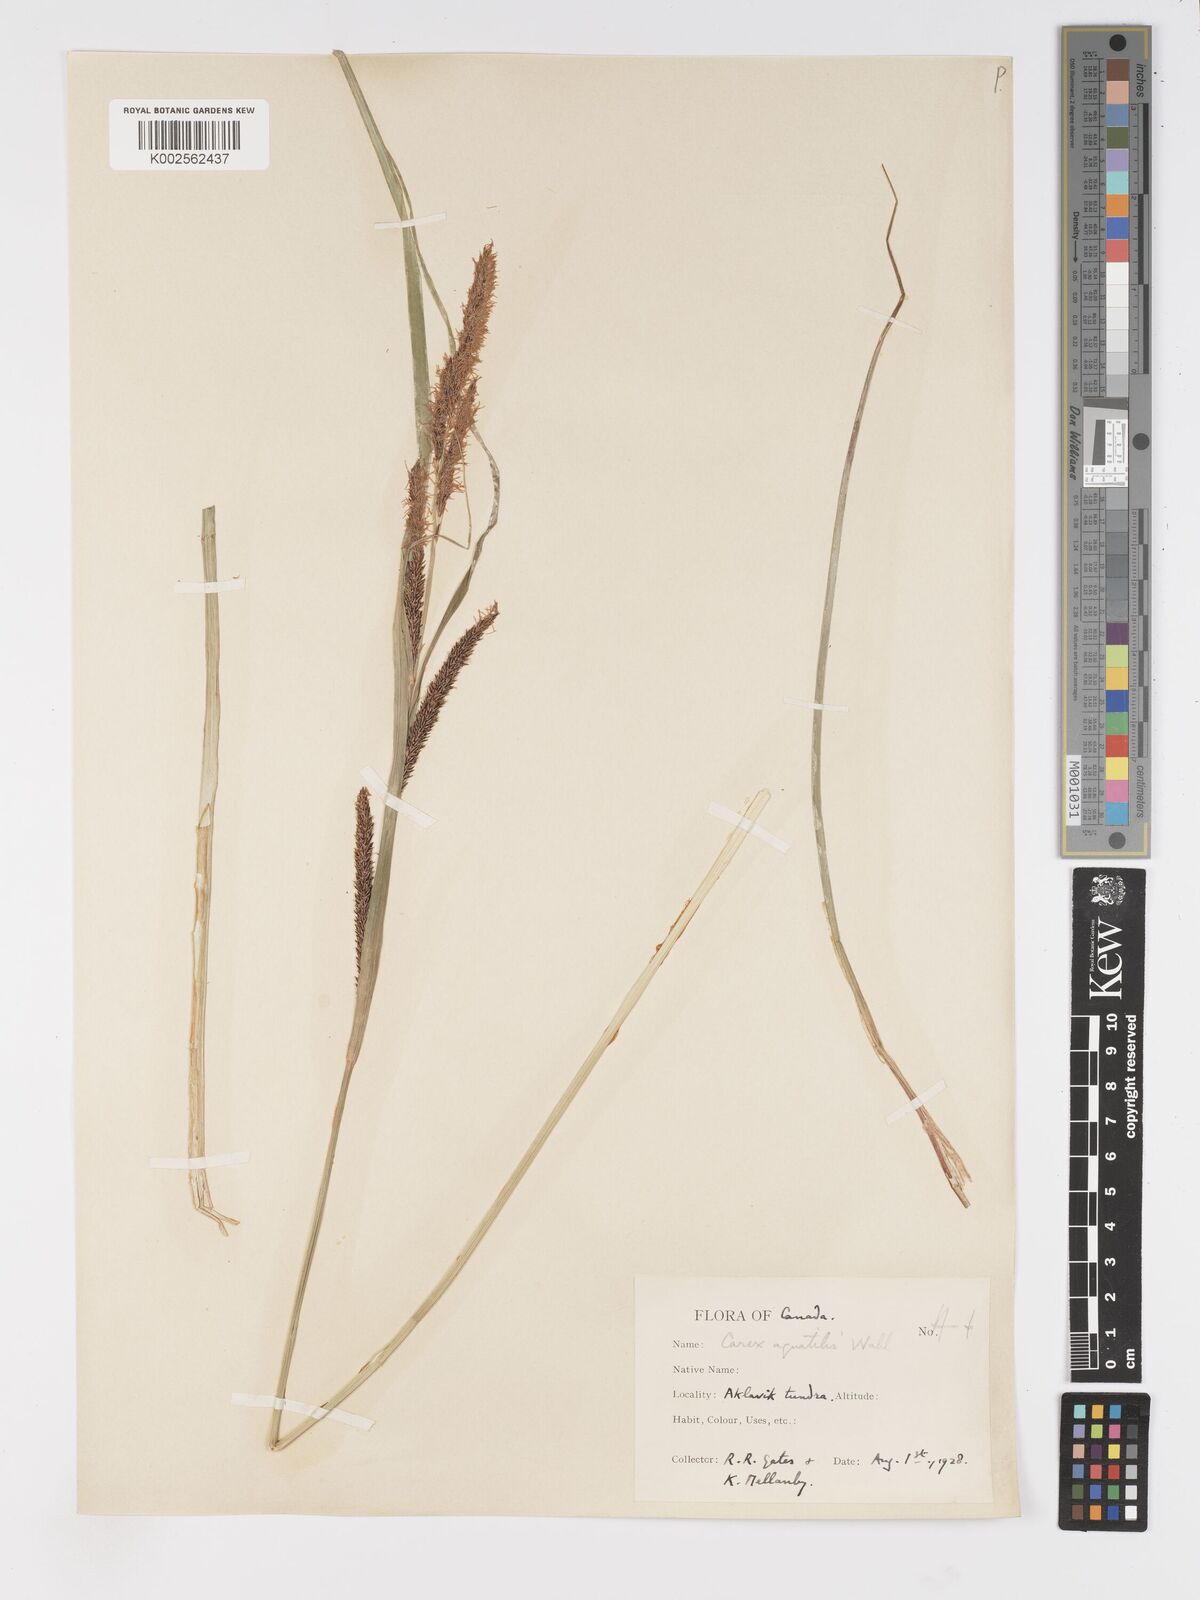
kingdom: Plantae
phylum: Tracheophyta
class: Liliopsida
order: Poales
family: Cyperaceae
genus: Carex
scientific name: Carex
